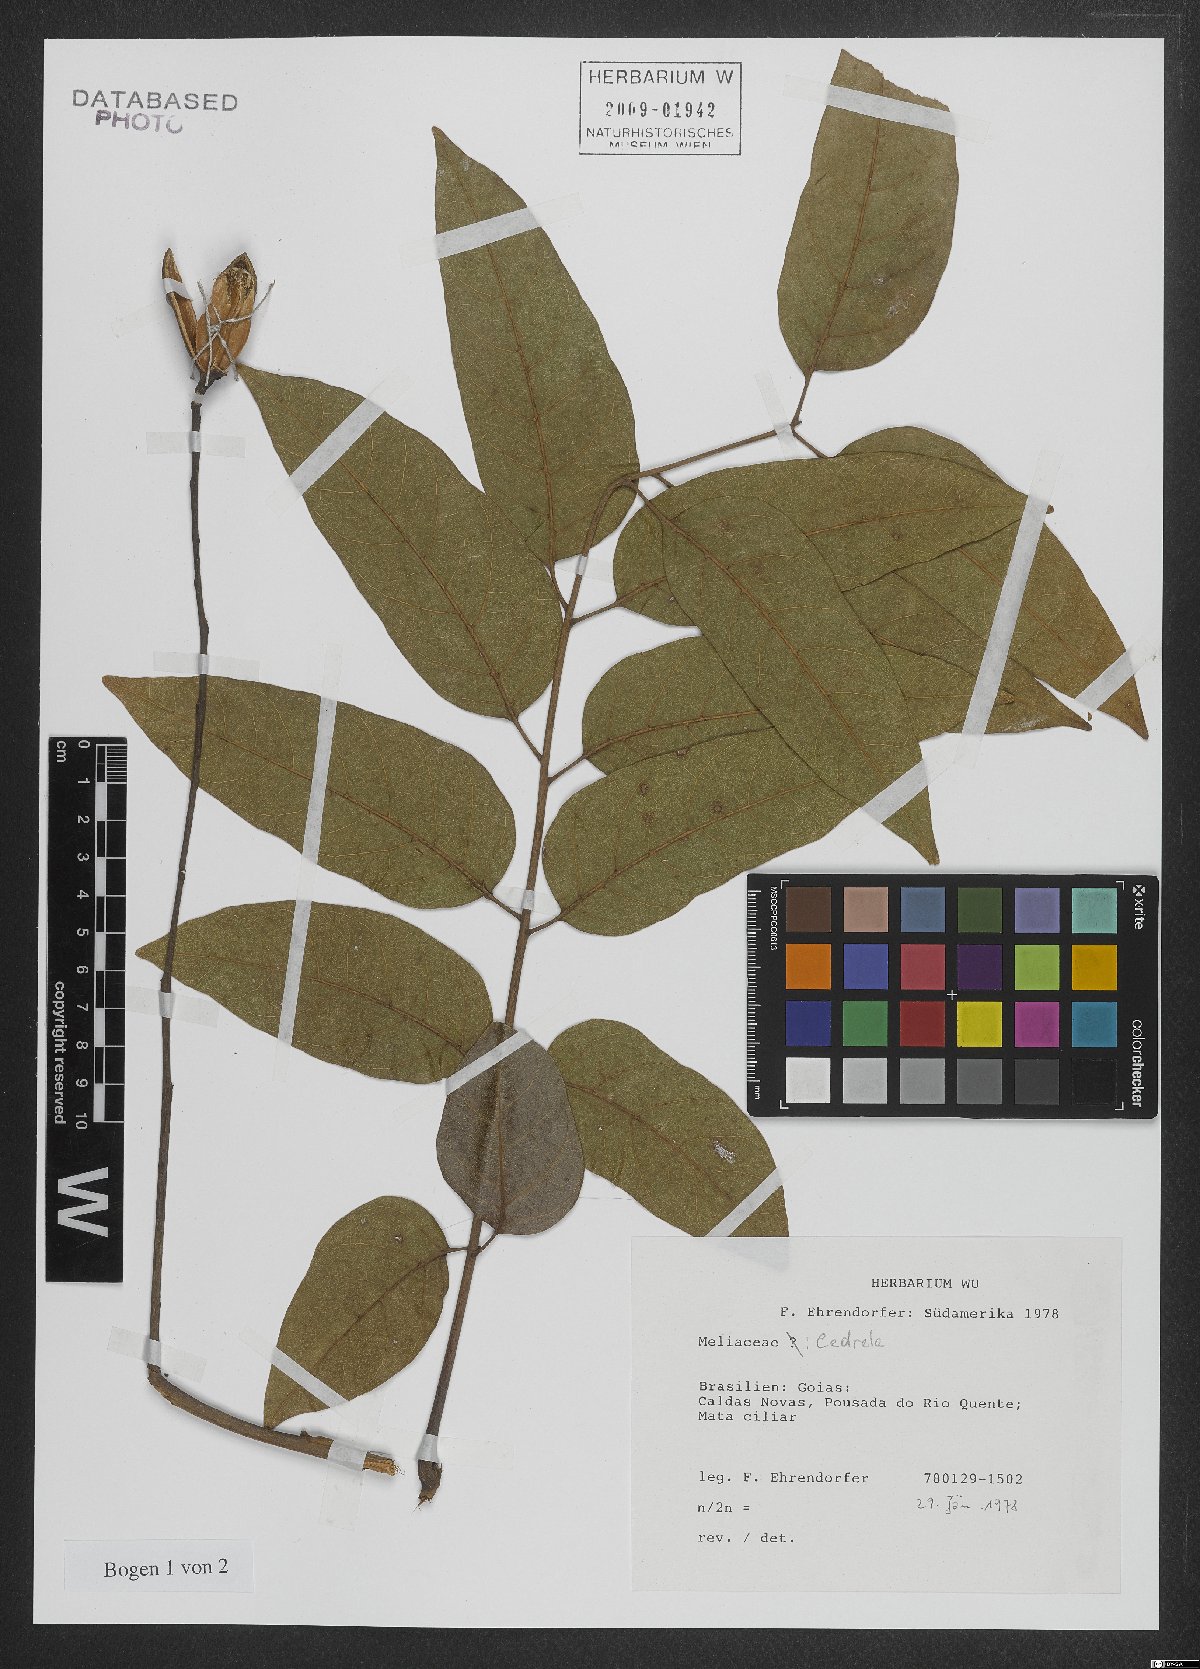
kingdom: Plantae
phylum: Tracheophyta
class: Magnoliopsida
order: Sapindales
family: Meliaceae
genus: Cedrela
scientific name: Cedrela
